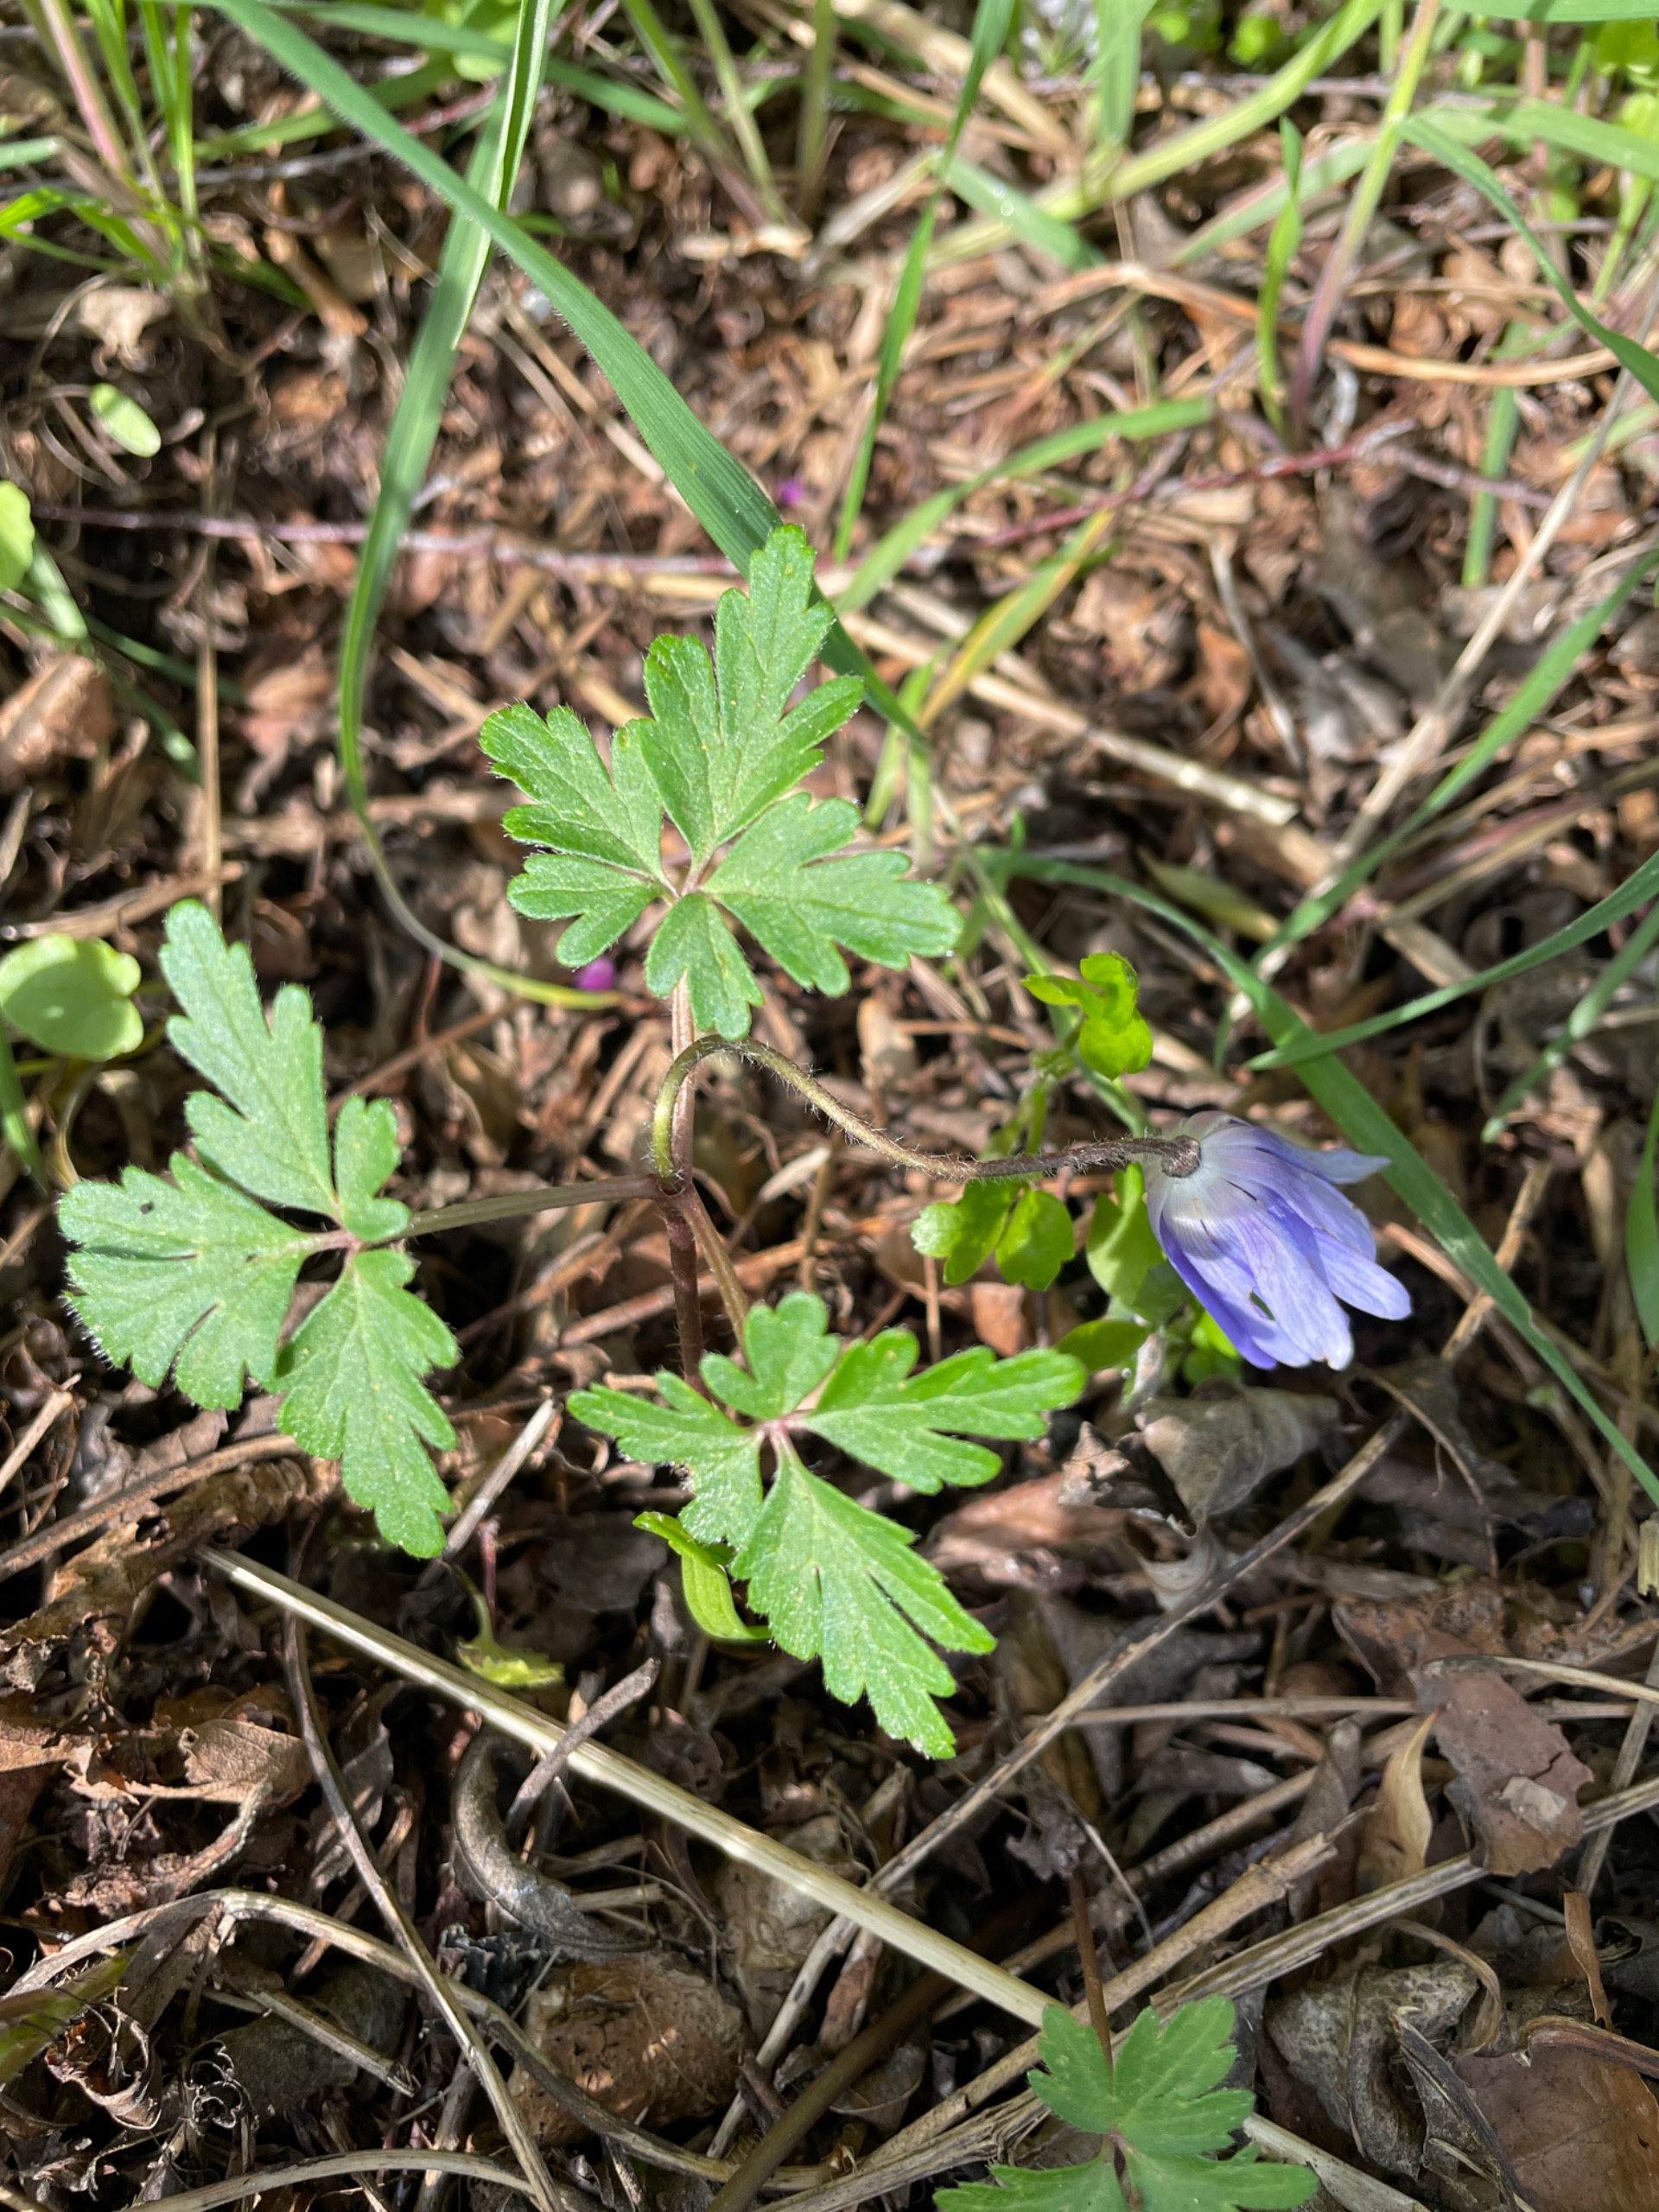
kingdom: Plantae
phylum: Tracheophyta
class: Magnoliopsida
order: Ranunculales
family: Ranunculaceae
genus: Anemone
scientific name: Anemone apennina
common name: Apenniner-anemone
